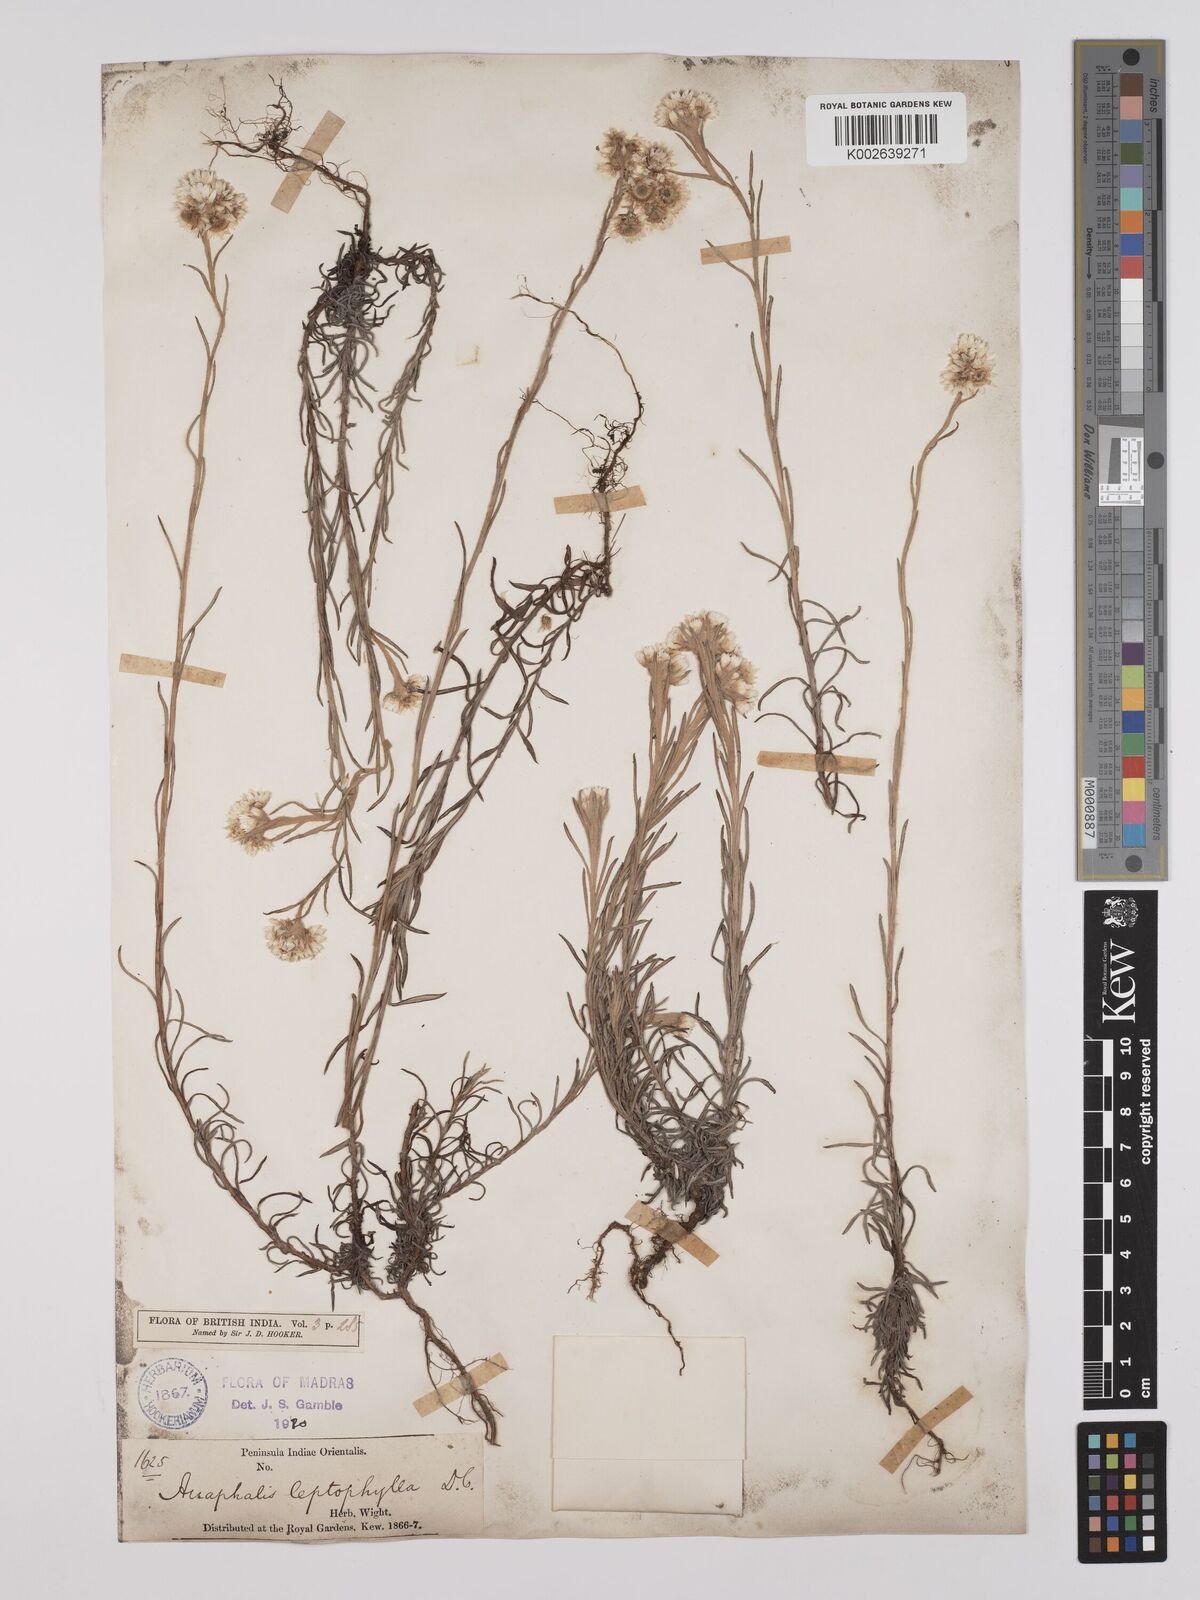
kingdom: Plantae
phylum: Tracheophyta
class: Magnoliopsida
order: Asterales
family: Asteraceae
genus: Anaphalis
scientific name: Anaphalis leptophylla
